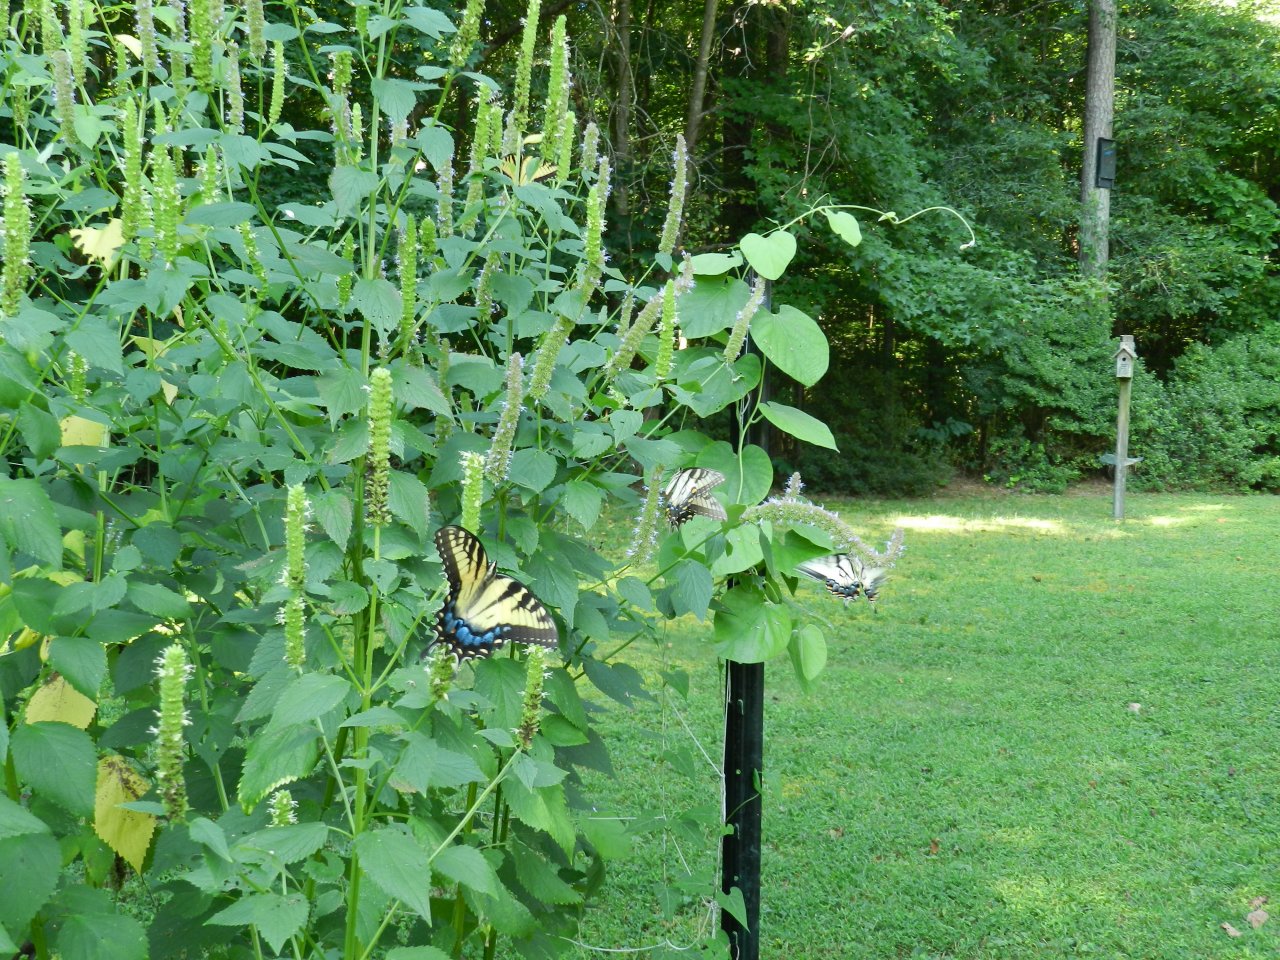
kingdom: Animalia
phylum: Arthropoda
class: Insecta
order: Lepidoptera
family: Papilionidae
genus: Pterourus
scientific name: Pterourus glaucus
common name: Eastern Tiger Swallowtail
